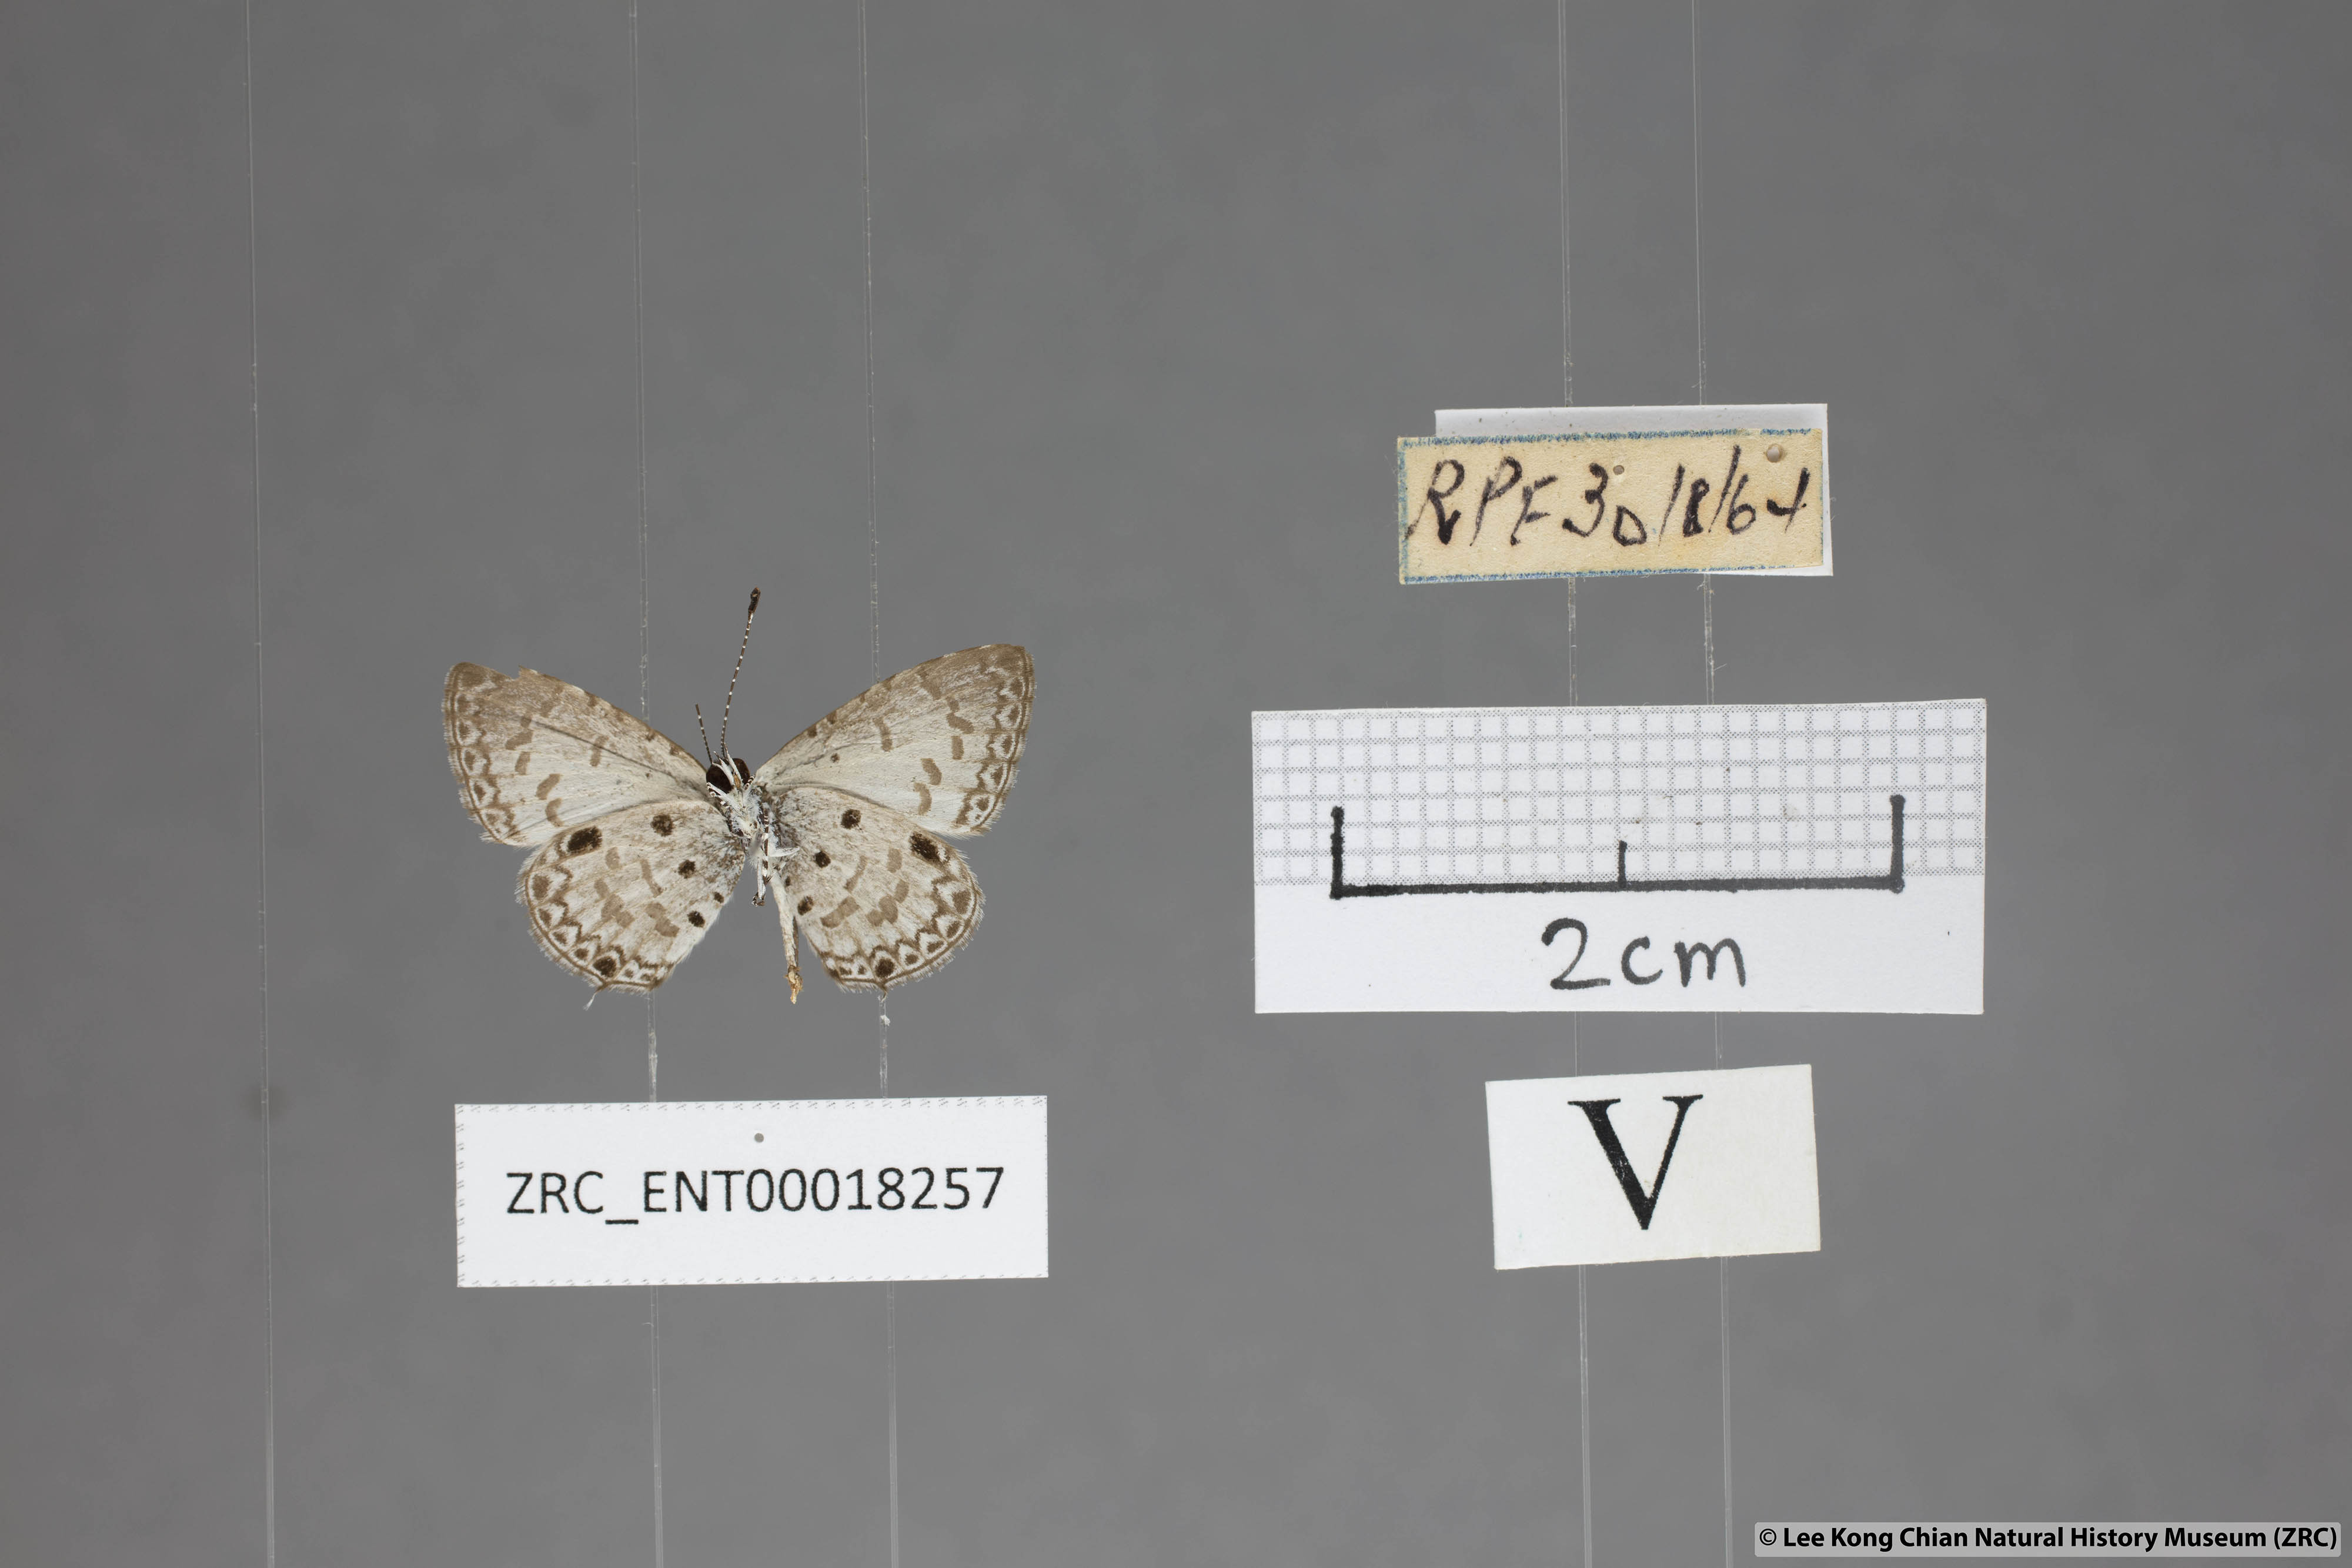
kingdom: Animalia
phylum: Arthropoda
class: Insecta
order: Lepidoptera
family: Lycaenidae
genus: Megisba
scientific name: Megisba malaya
